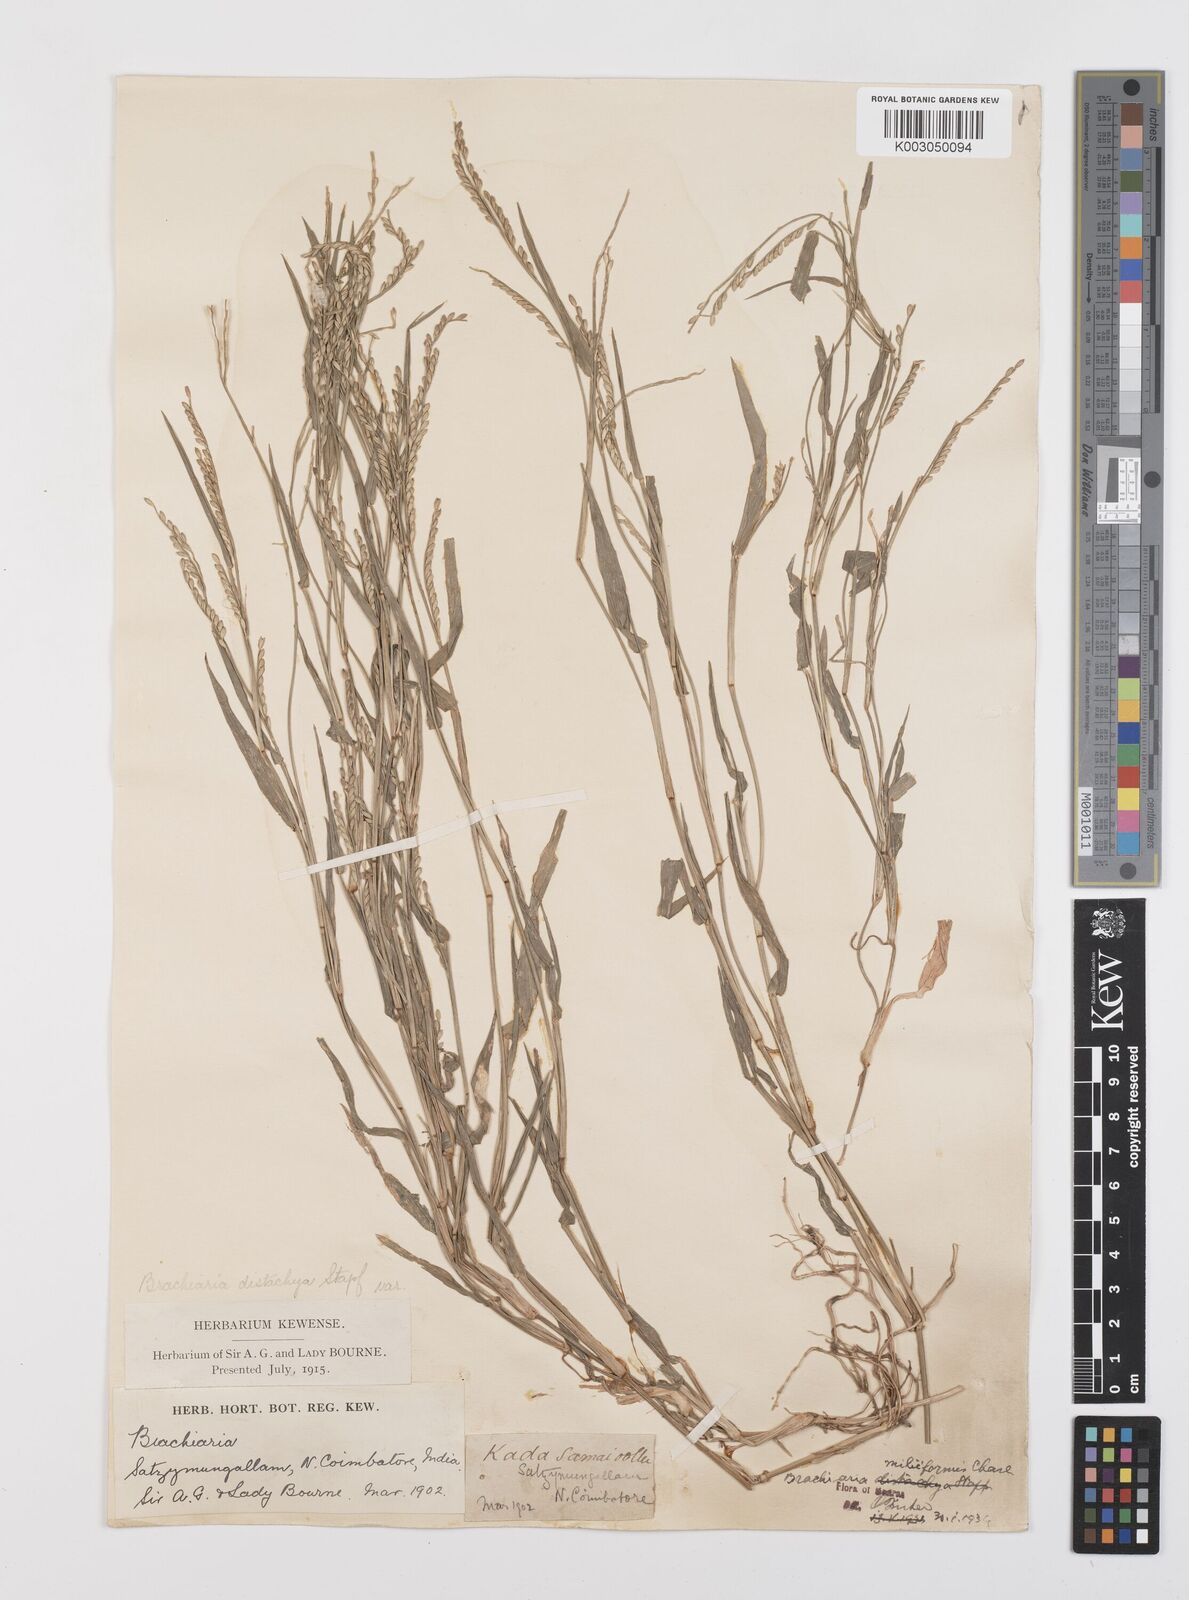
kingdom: Plantae
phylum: Tracheophyta
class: Liliopsida
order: Poales
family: Poaceae
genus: Urochloa
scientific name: Urochloa subquadripara
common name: Armgrass millet
